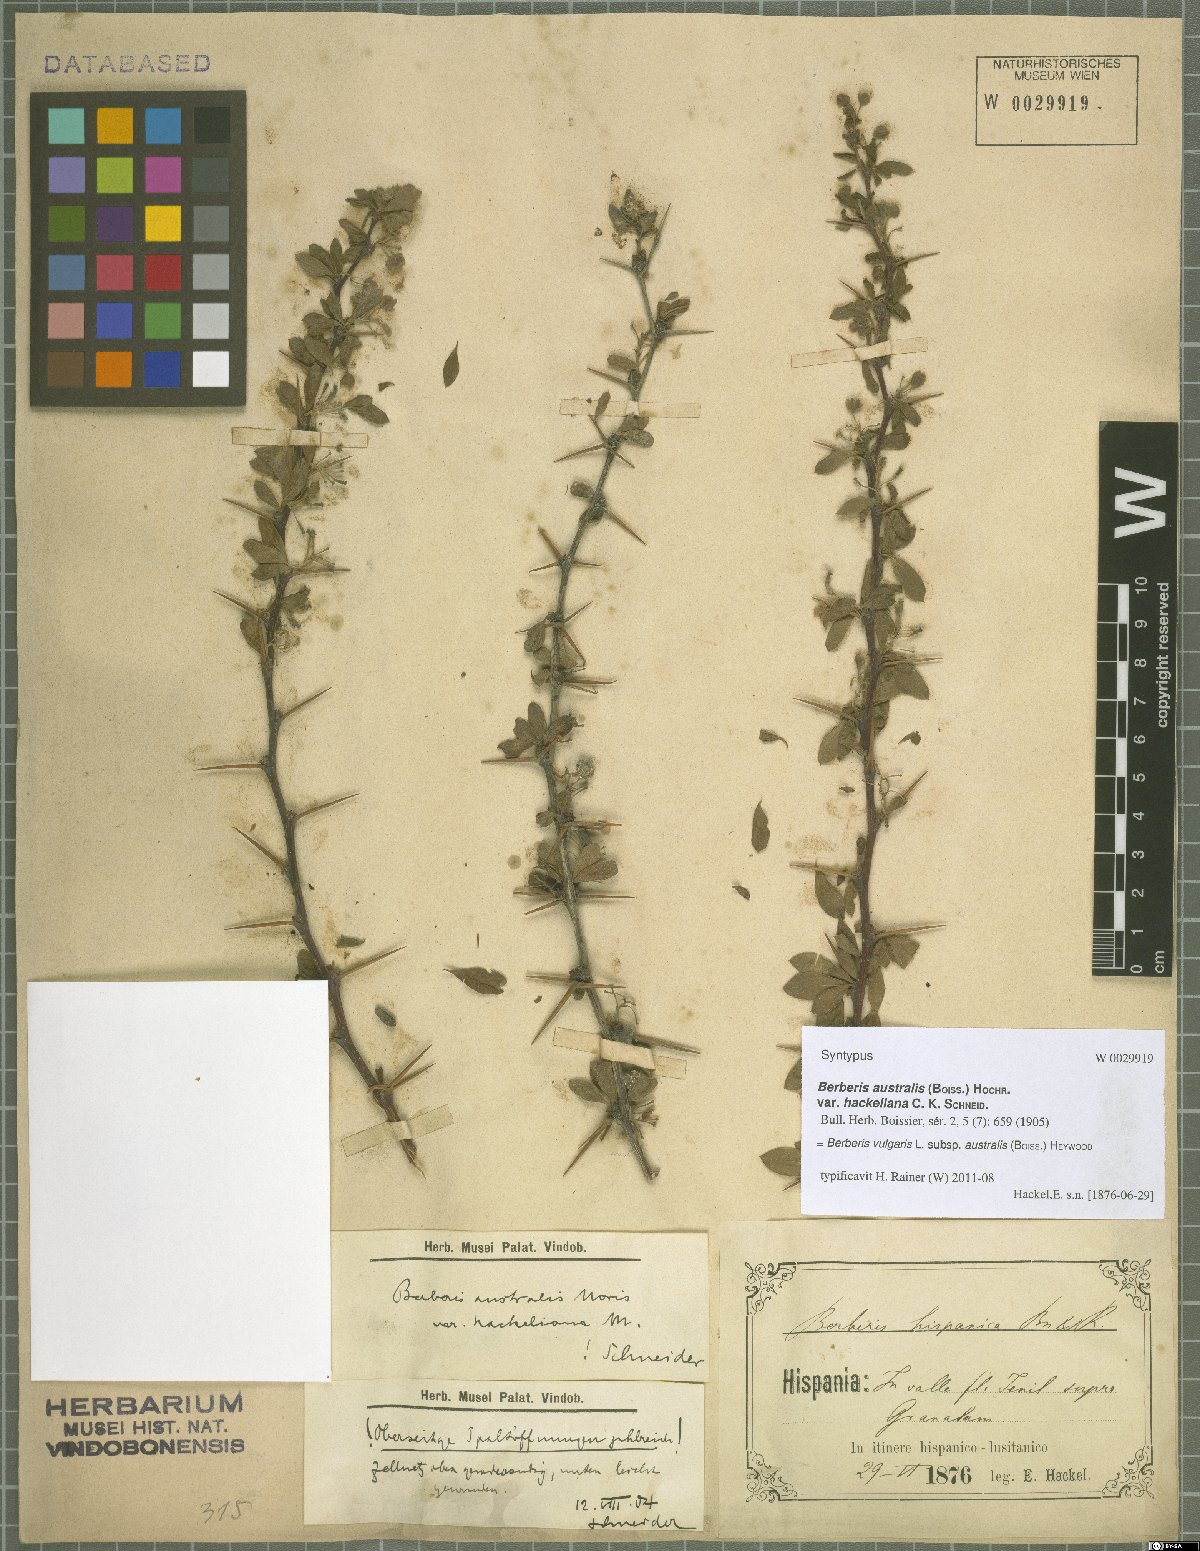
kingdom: Plantae
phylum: Tracheophyta
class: Magnoliopsida
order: Ranunculales
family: Berberidaceae
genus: Berberis
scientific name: Berberis hispanica
